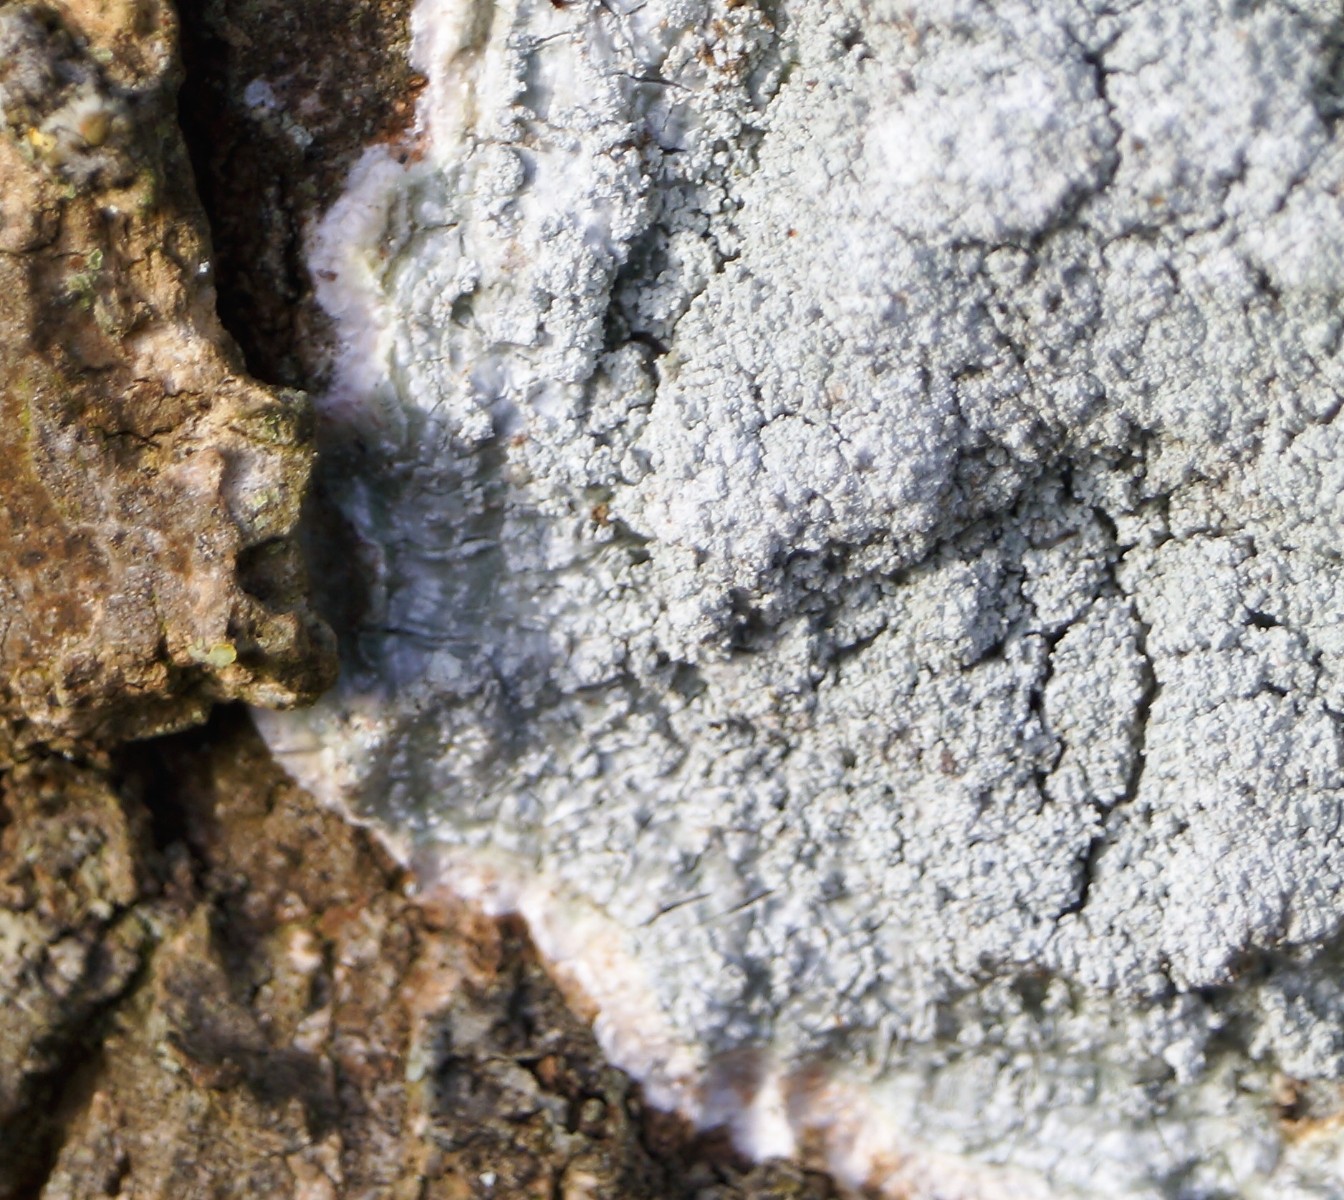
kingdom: Fungi
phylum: Ascomycota
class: Lecanoromycetes
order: Lecanorales
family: Haematommataceae
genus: Haematomma
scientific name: Haematomma ochroleucum
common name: gul trådkantlav
